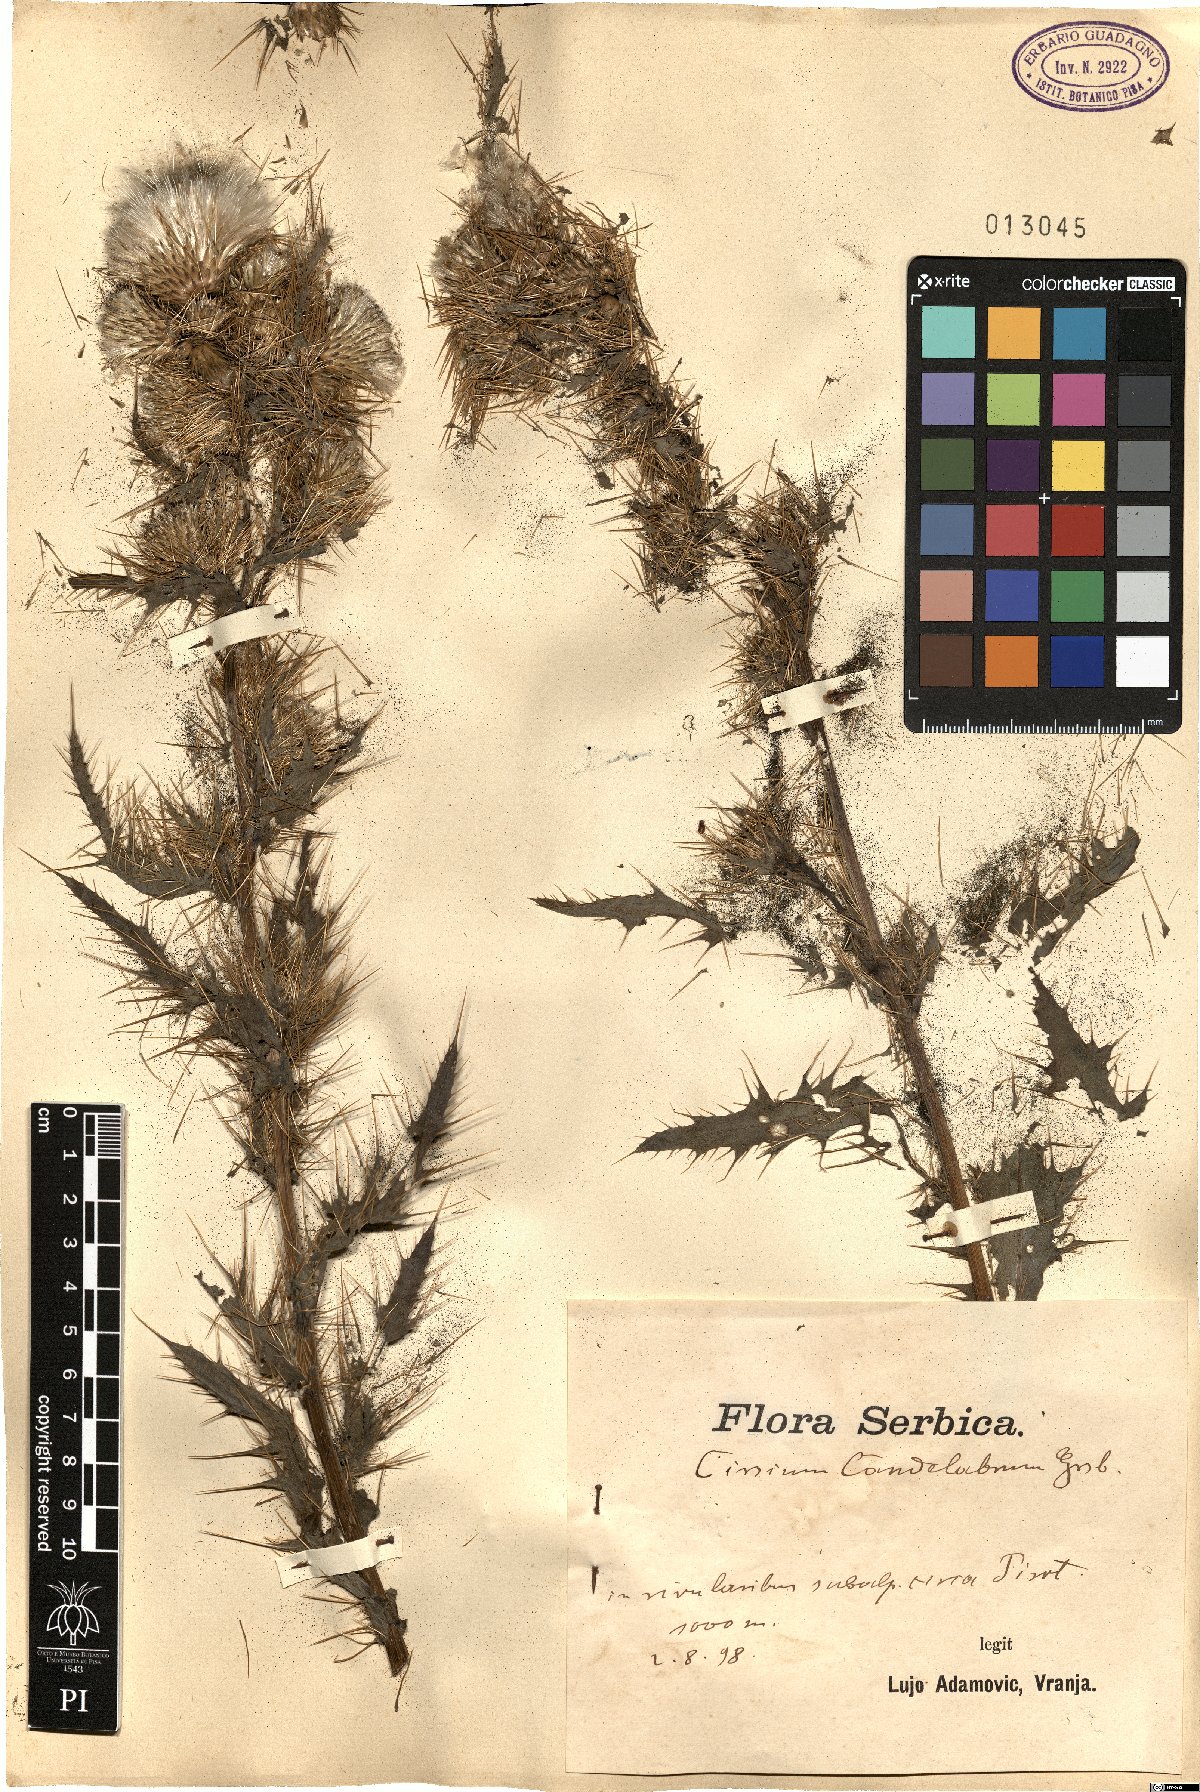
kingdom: Plantae
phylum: Tracheophyta
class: Magnoliopsida
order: Asterales
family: Asteraceae
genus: Cirsium
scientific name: Cirsium candelabrum
